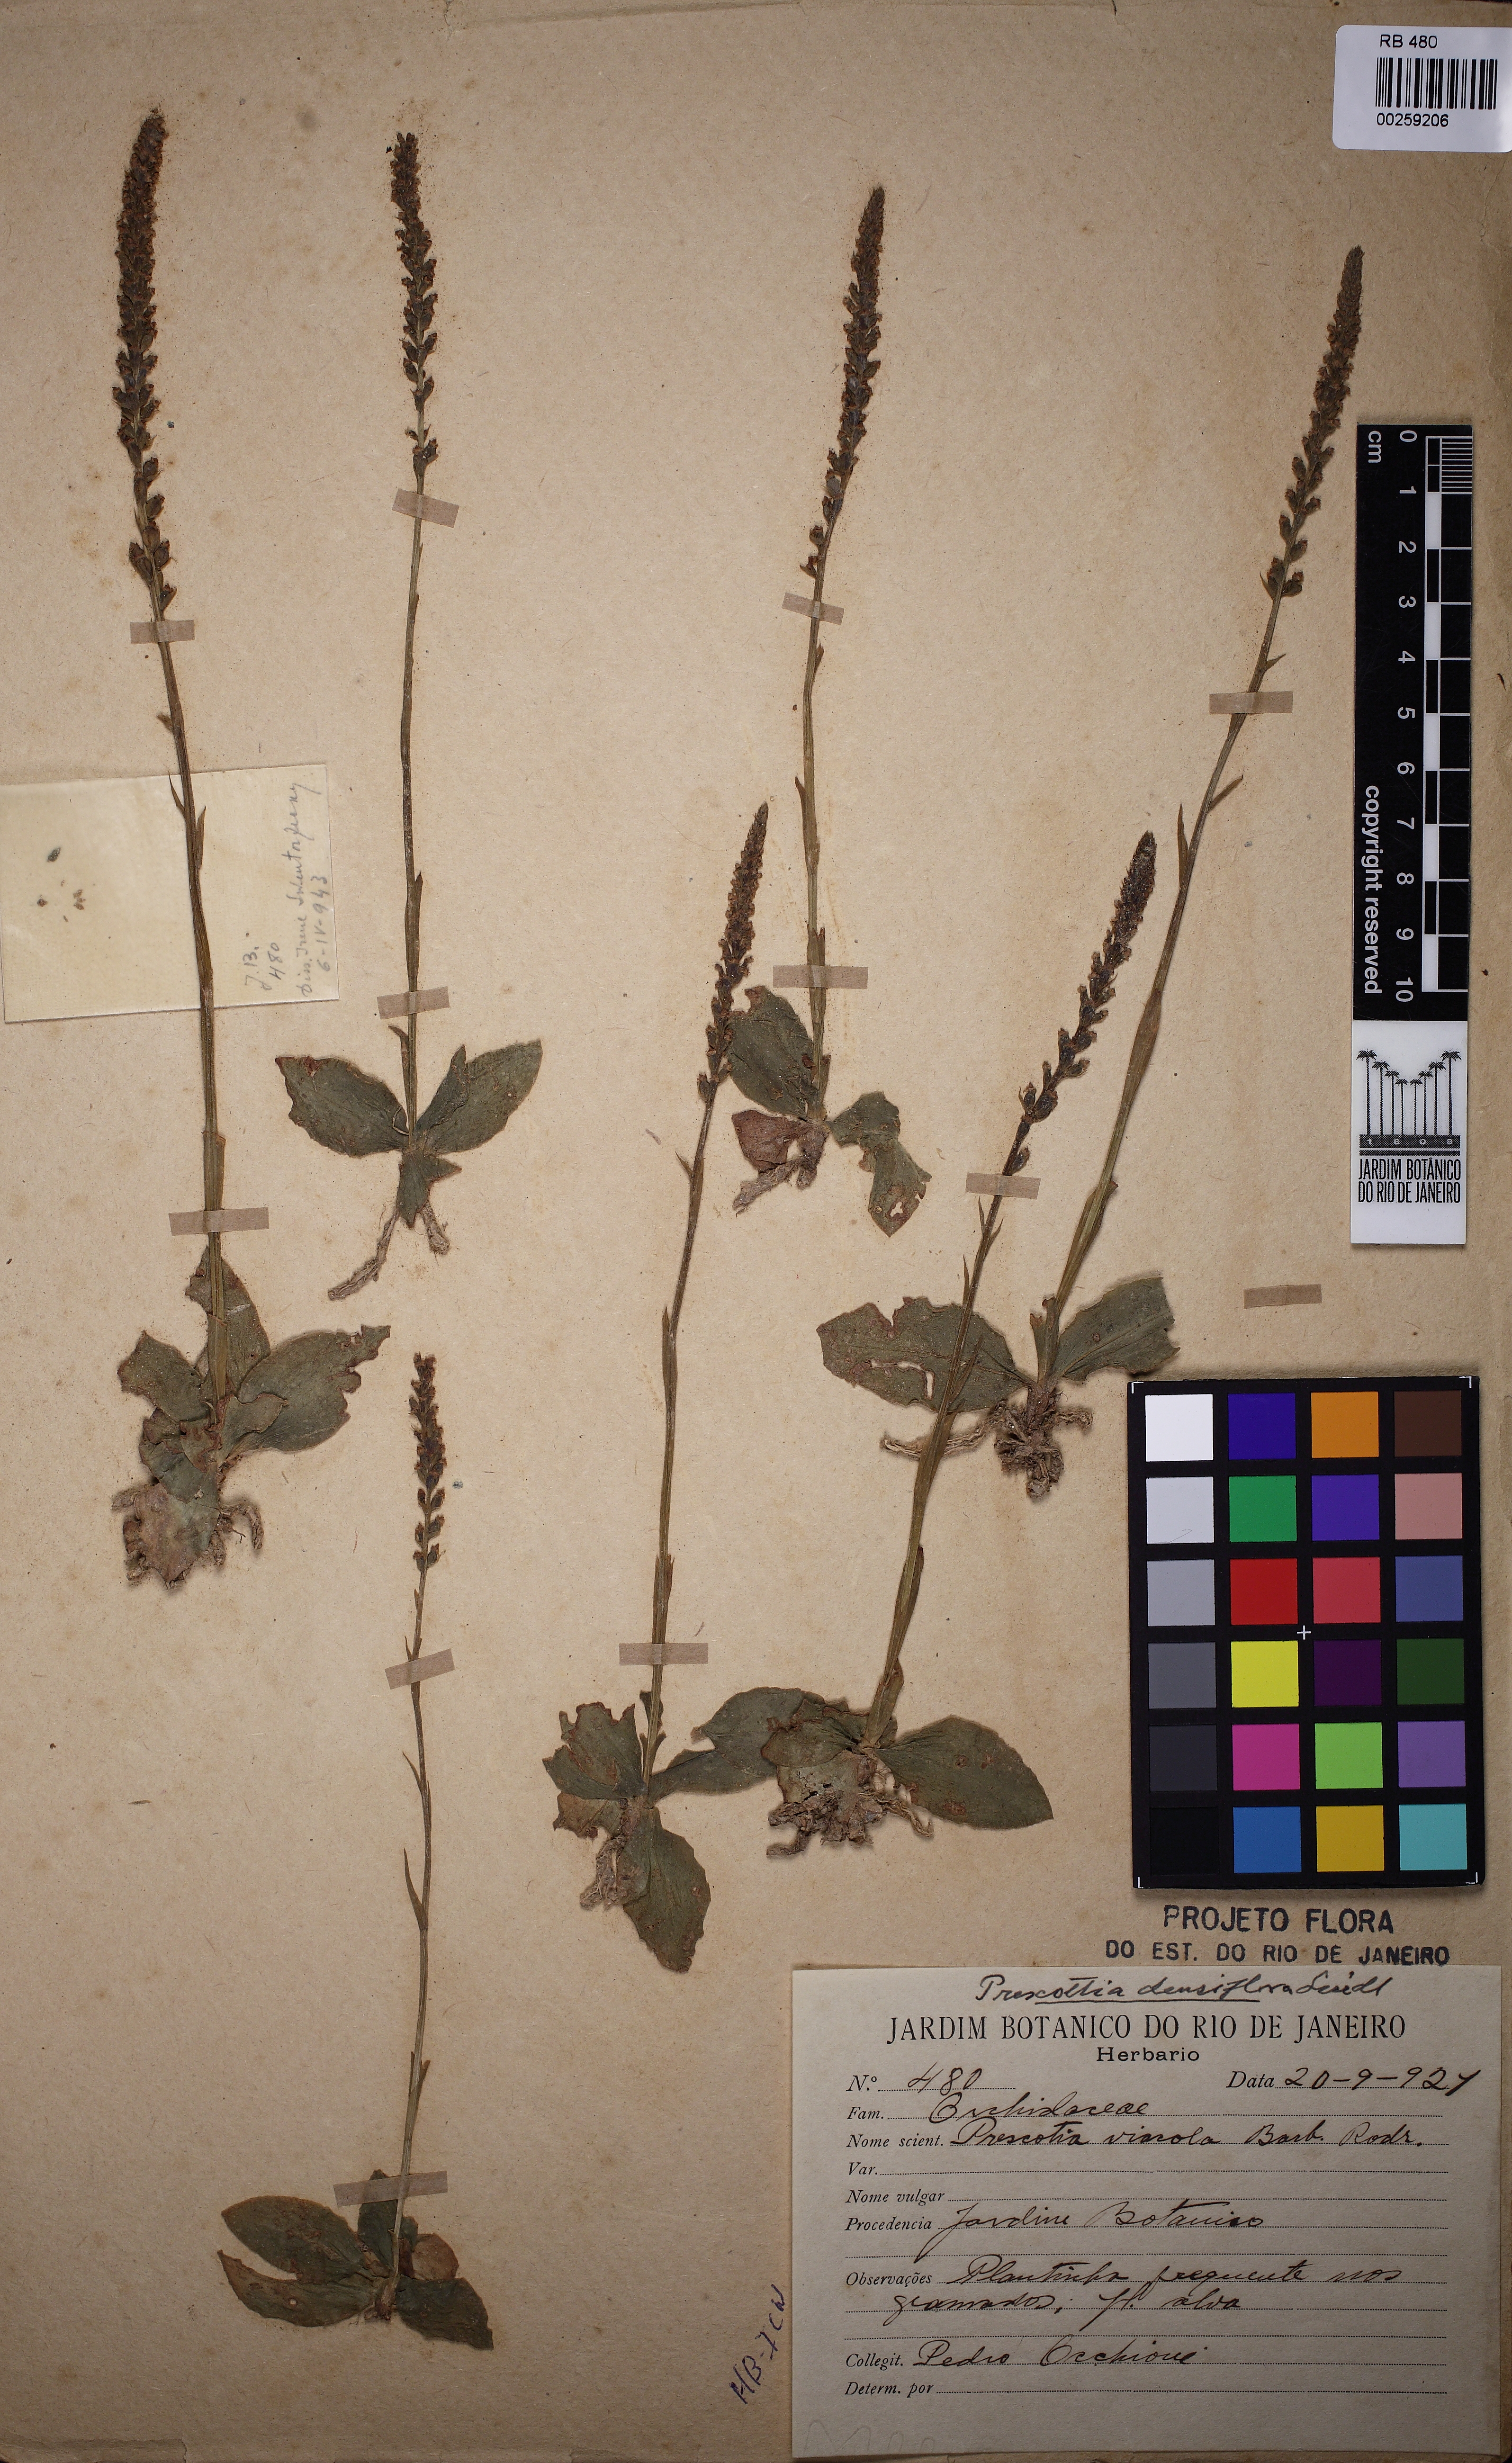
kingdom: Plantae
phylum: Tracheophyta
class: Liliopsida
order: Asparagales
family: Orchidaceae
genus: Prescottia
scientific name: Prescottia densiflora
